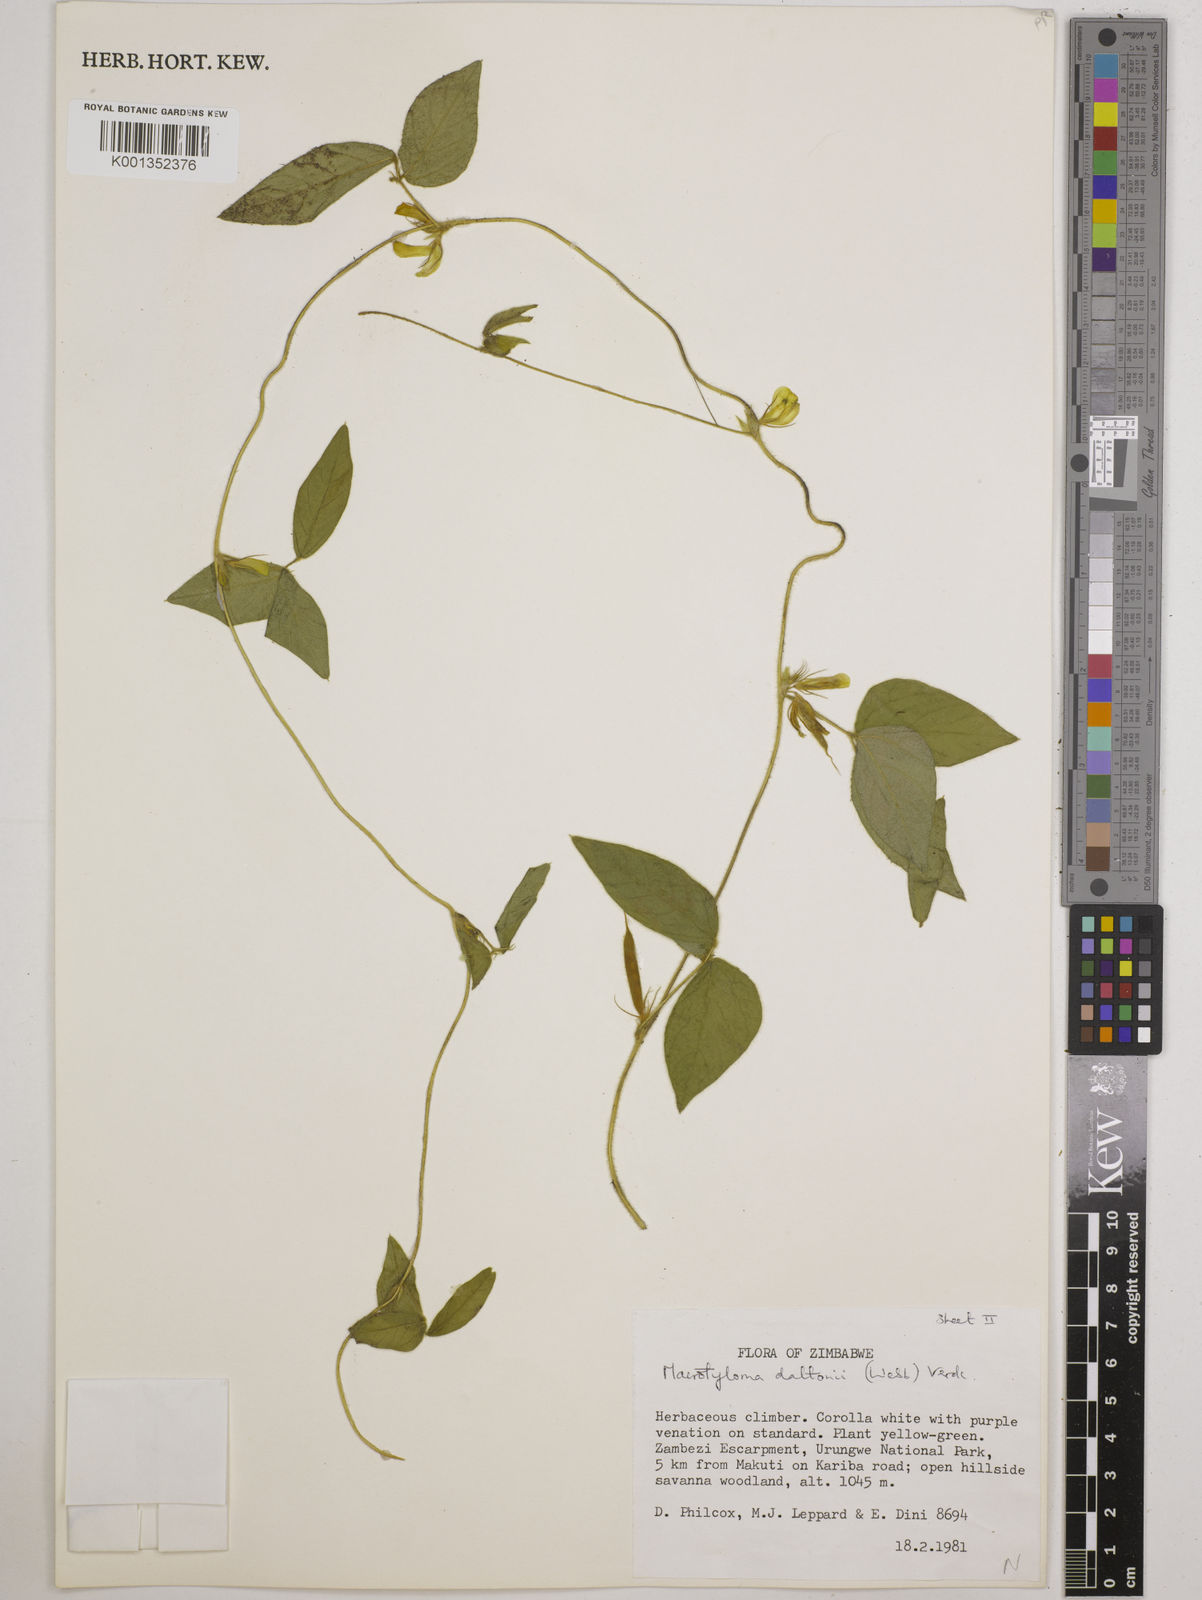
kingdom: Plantae
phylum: Tracheophyta
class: Magnoliopsida
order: Fabales
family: Fabaceae
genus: Macrotyloma
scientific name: Macrotyloma daltonii
